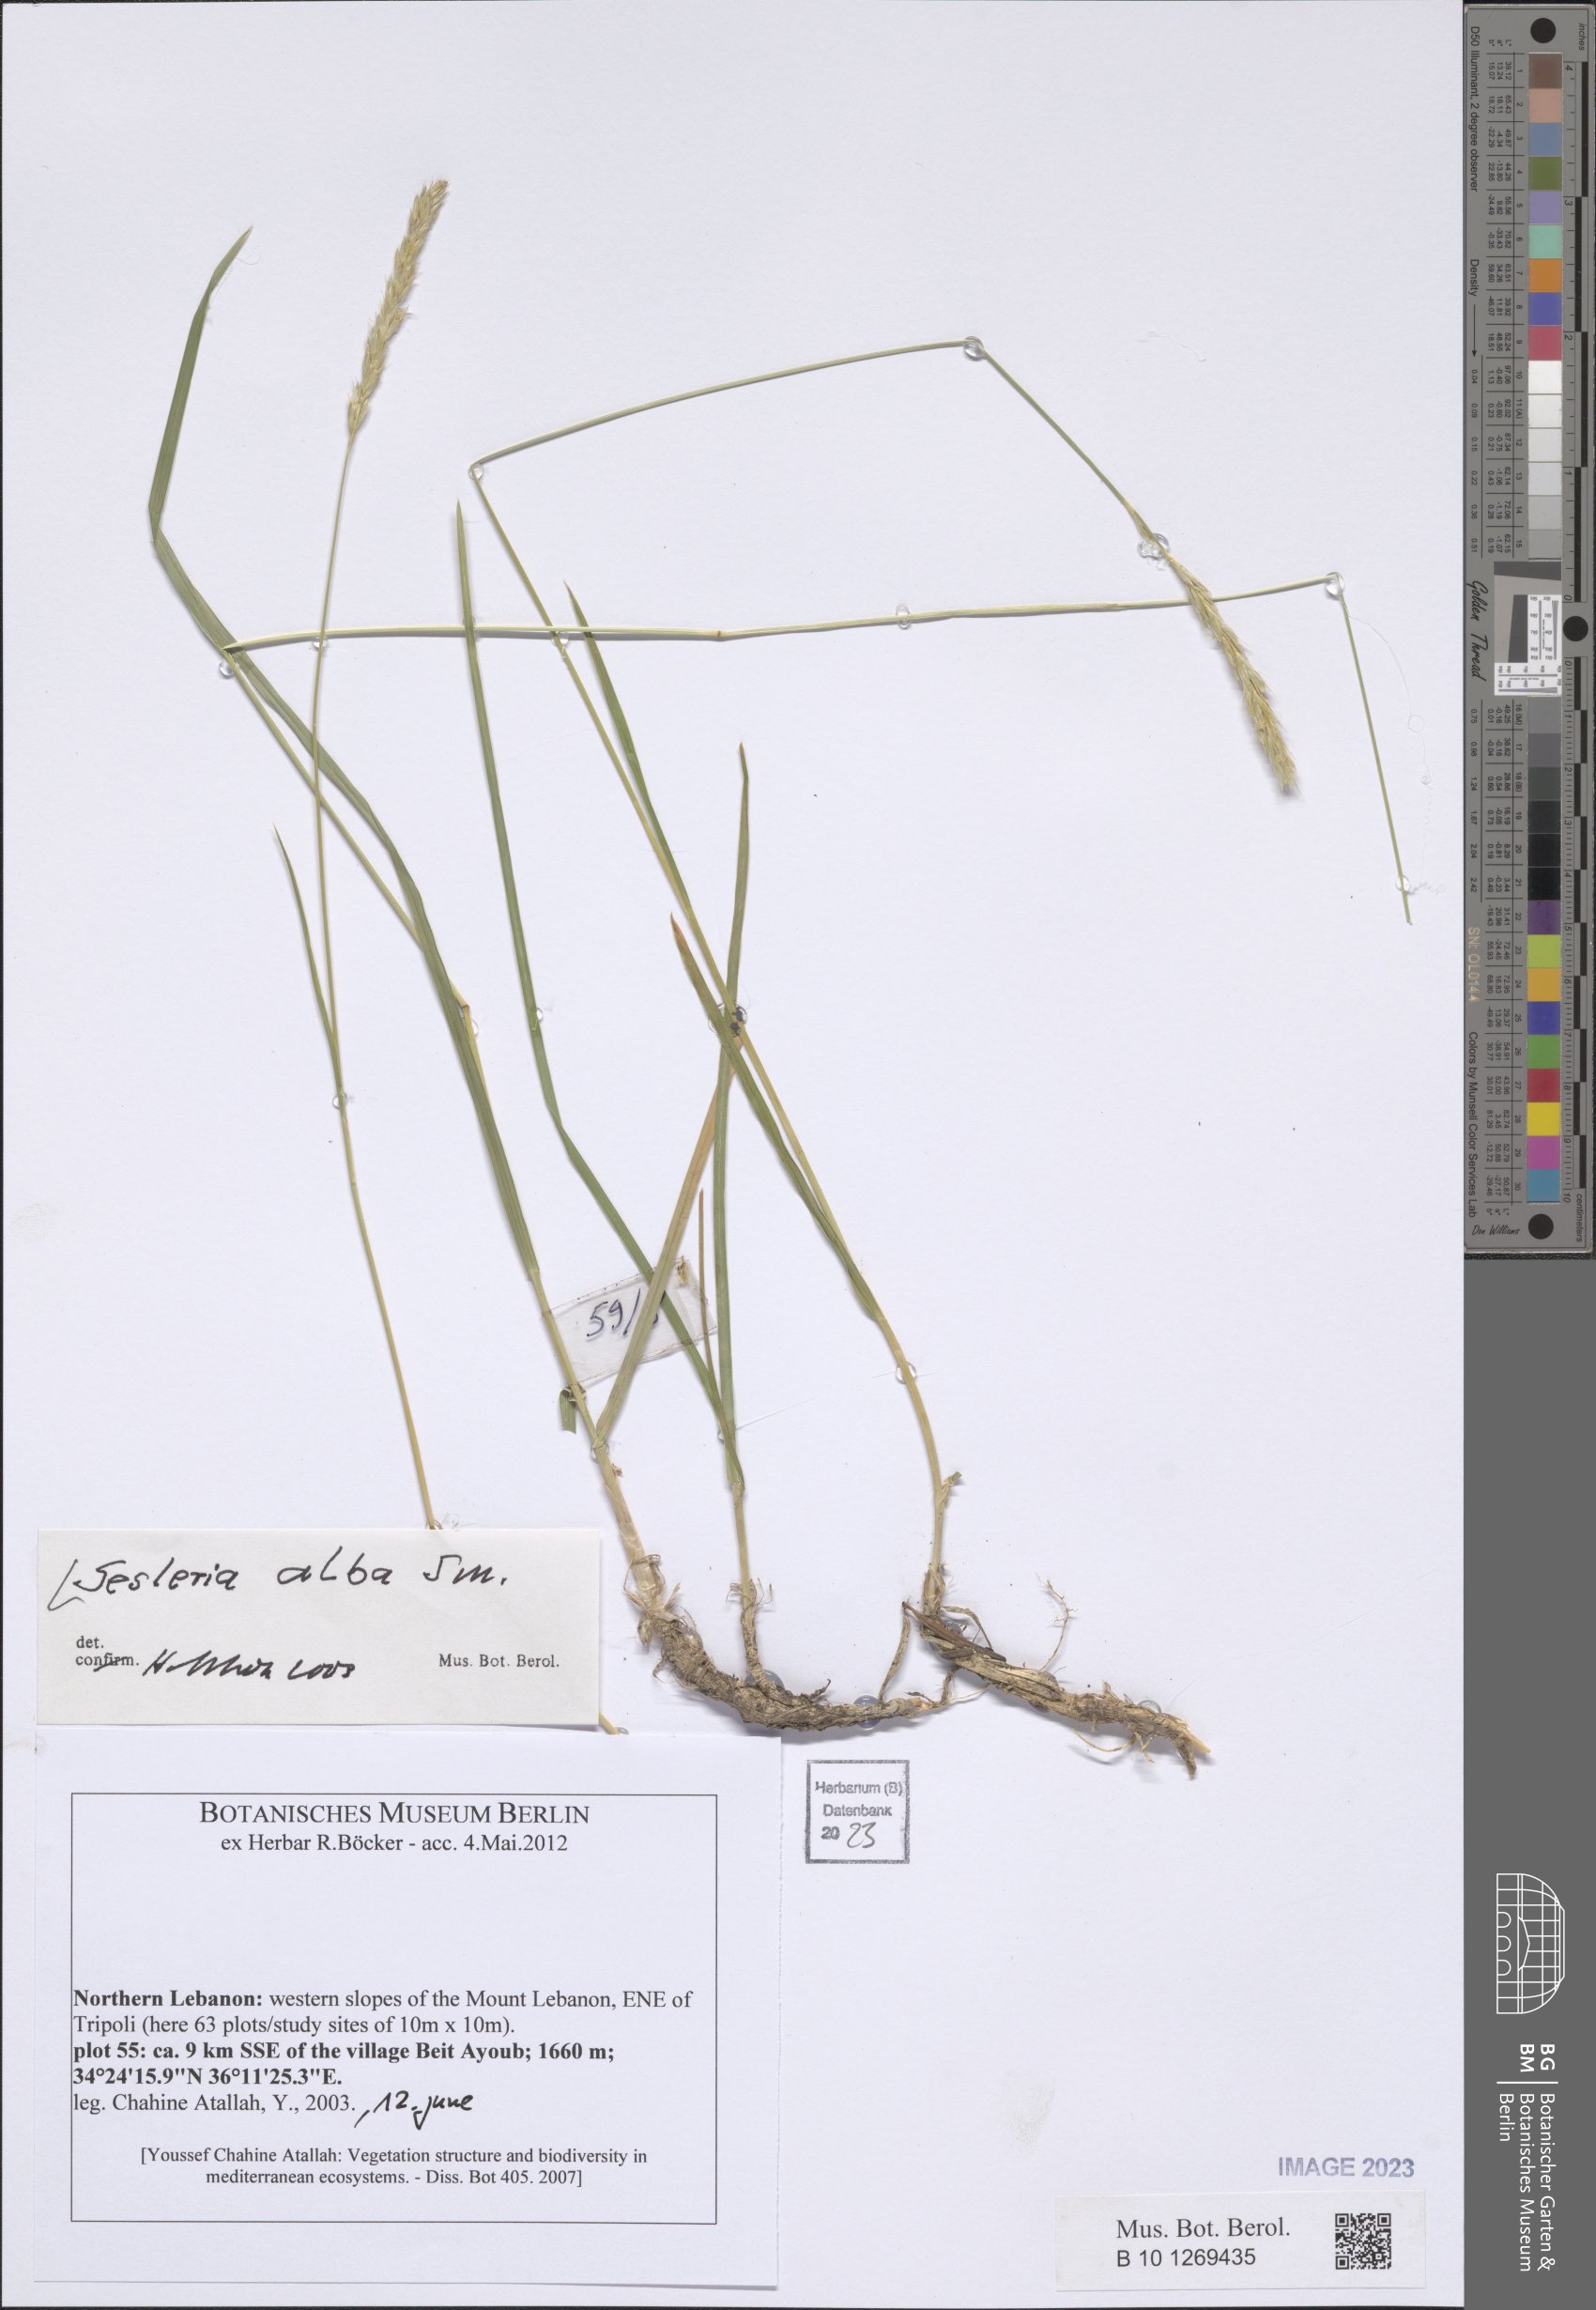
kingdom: Plantae
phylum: Tracheophyta
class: Liliopsida
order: Poales
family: Poaceae
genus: Sesleria
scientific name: Sesleria alba
